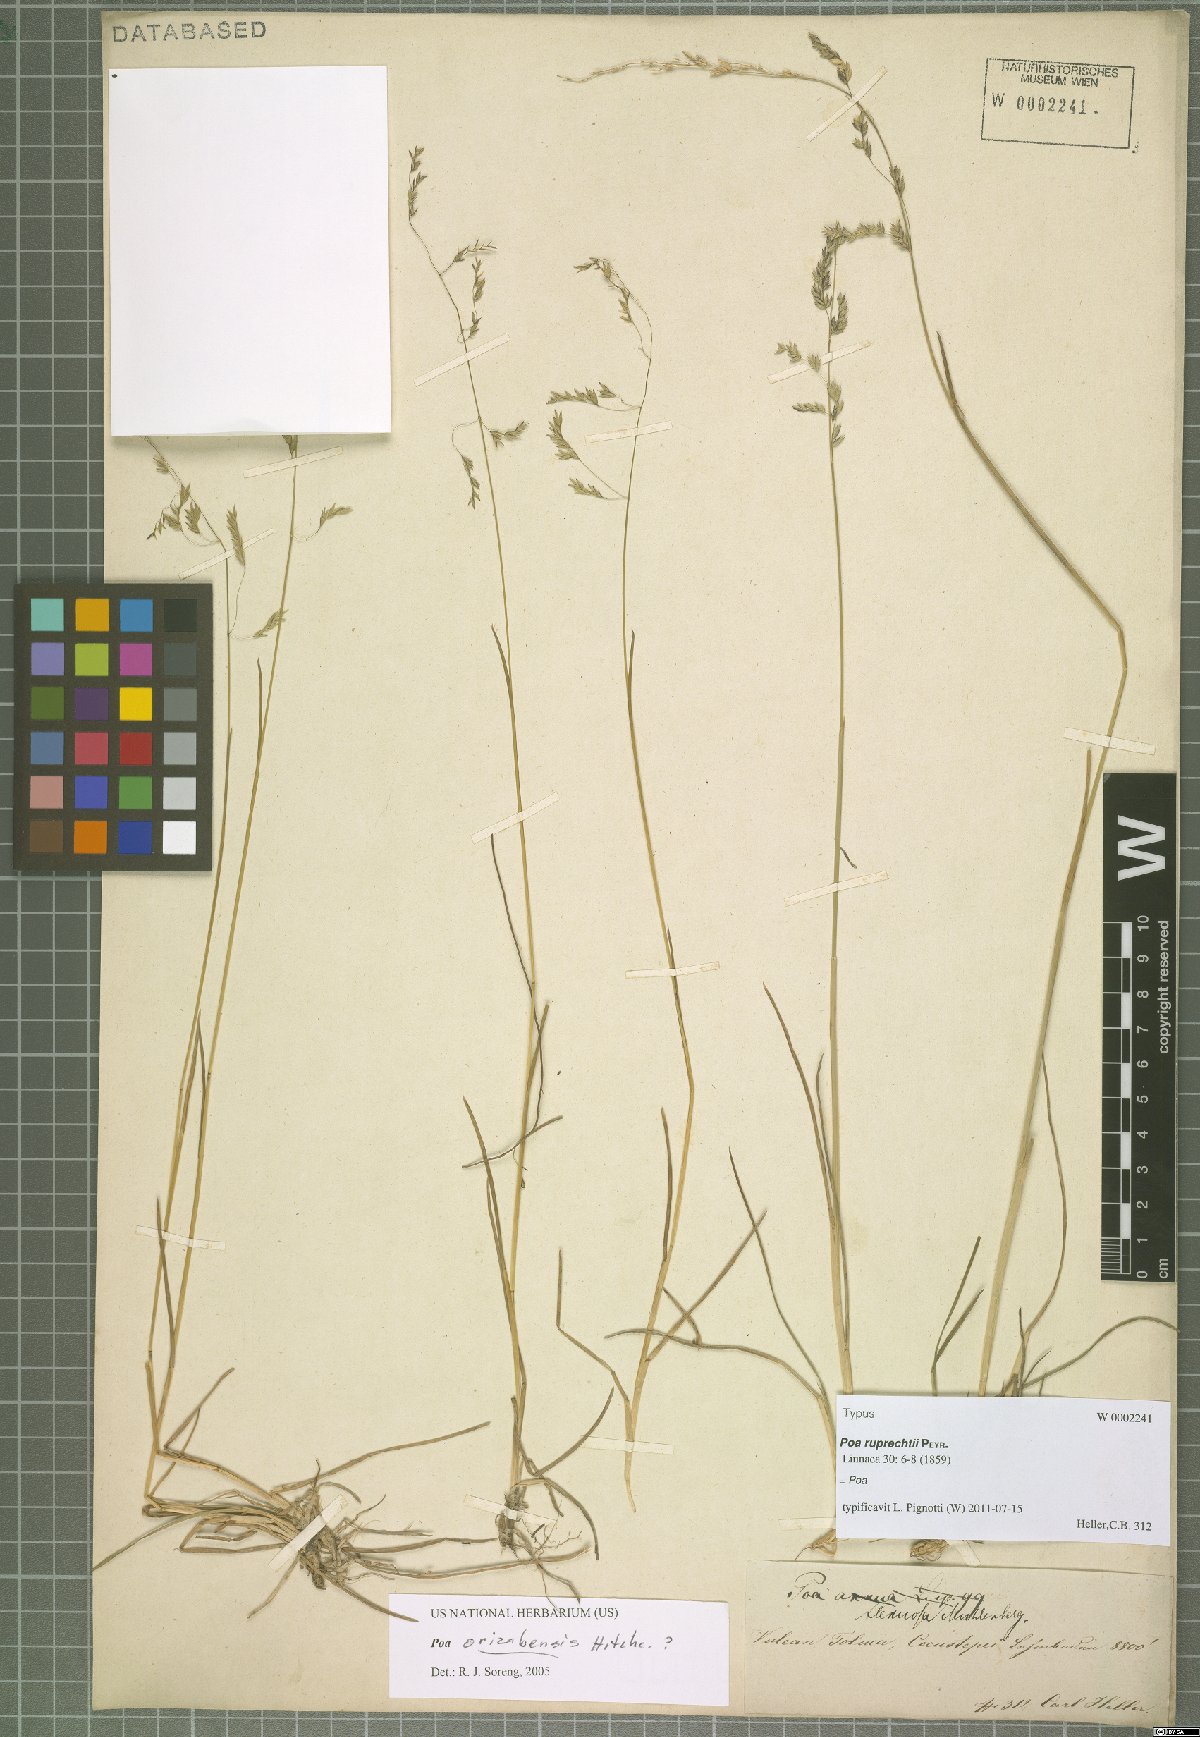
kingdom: Plantae
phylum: Tracheophyta
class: Liliopsida
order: Poales
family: Poaceae
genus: Poa
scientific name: Poa
